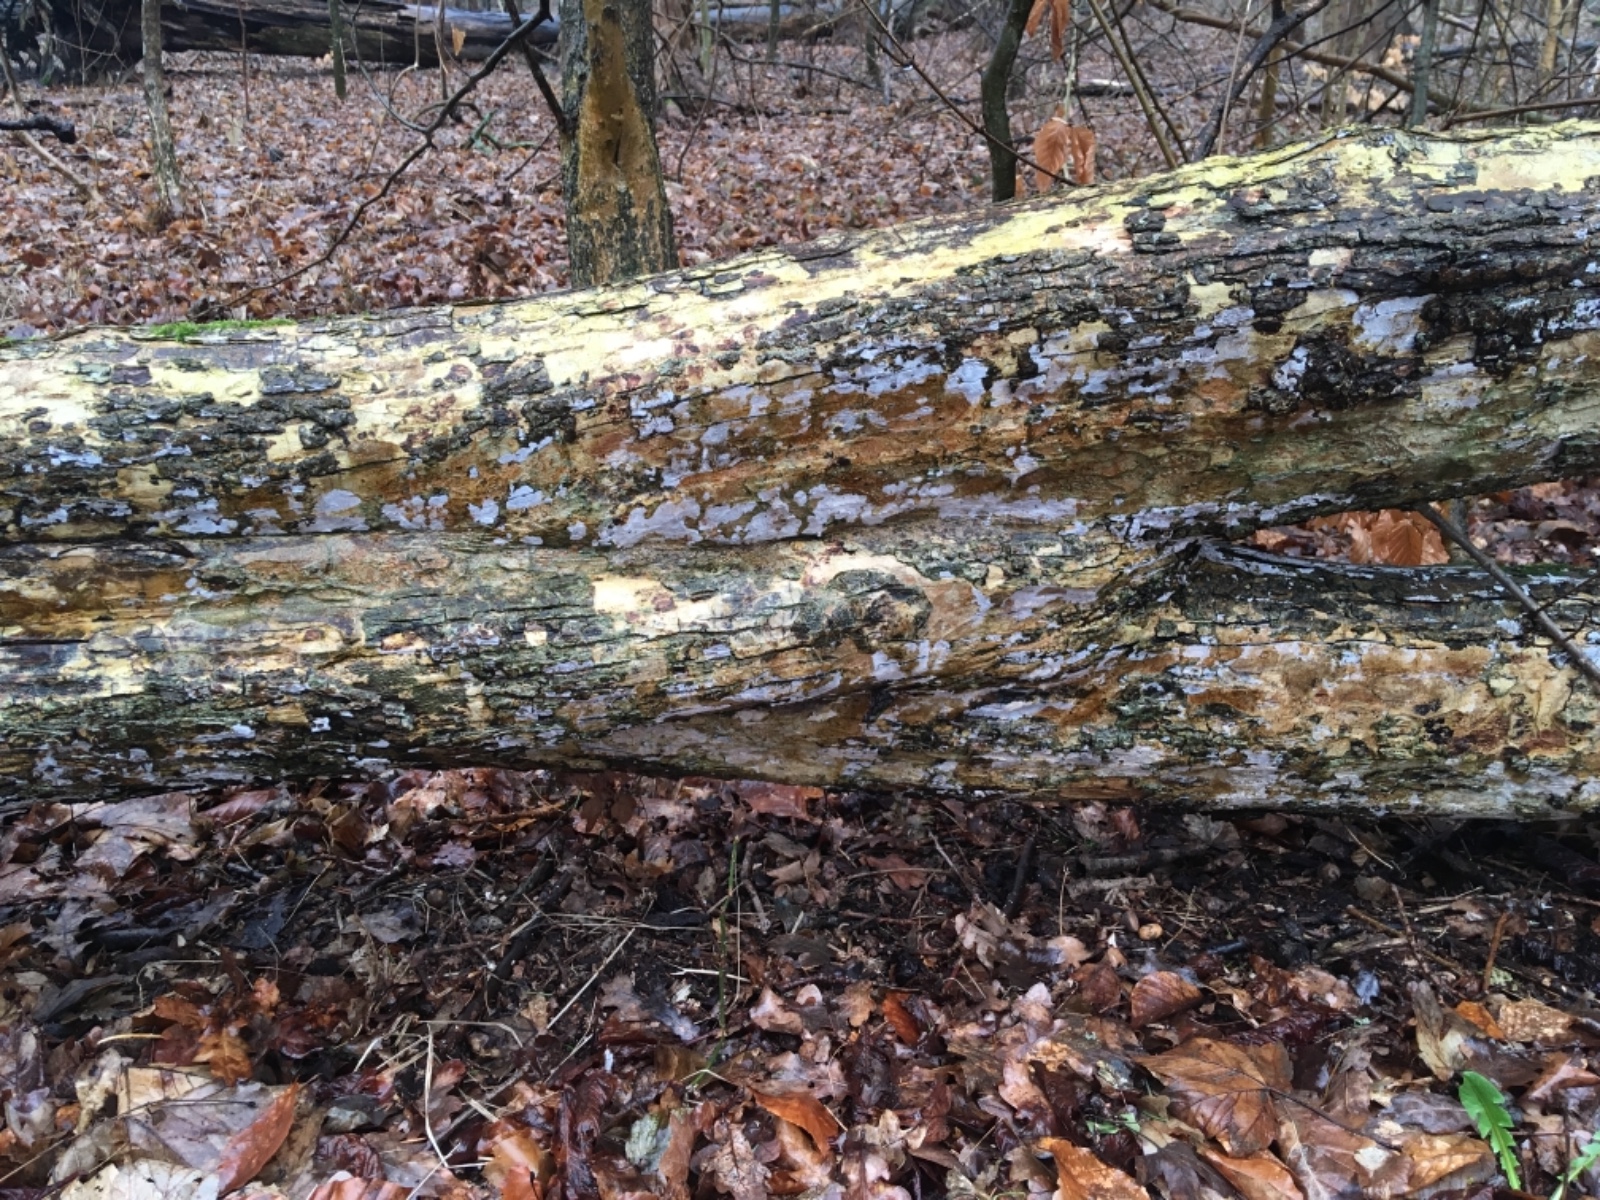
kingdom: Fungi
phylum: Basidiomycota
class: Agaricomycetes
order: Agaricales
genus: Dendrothele
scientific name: Dendrothele acerina
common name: navr-kalkplet
